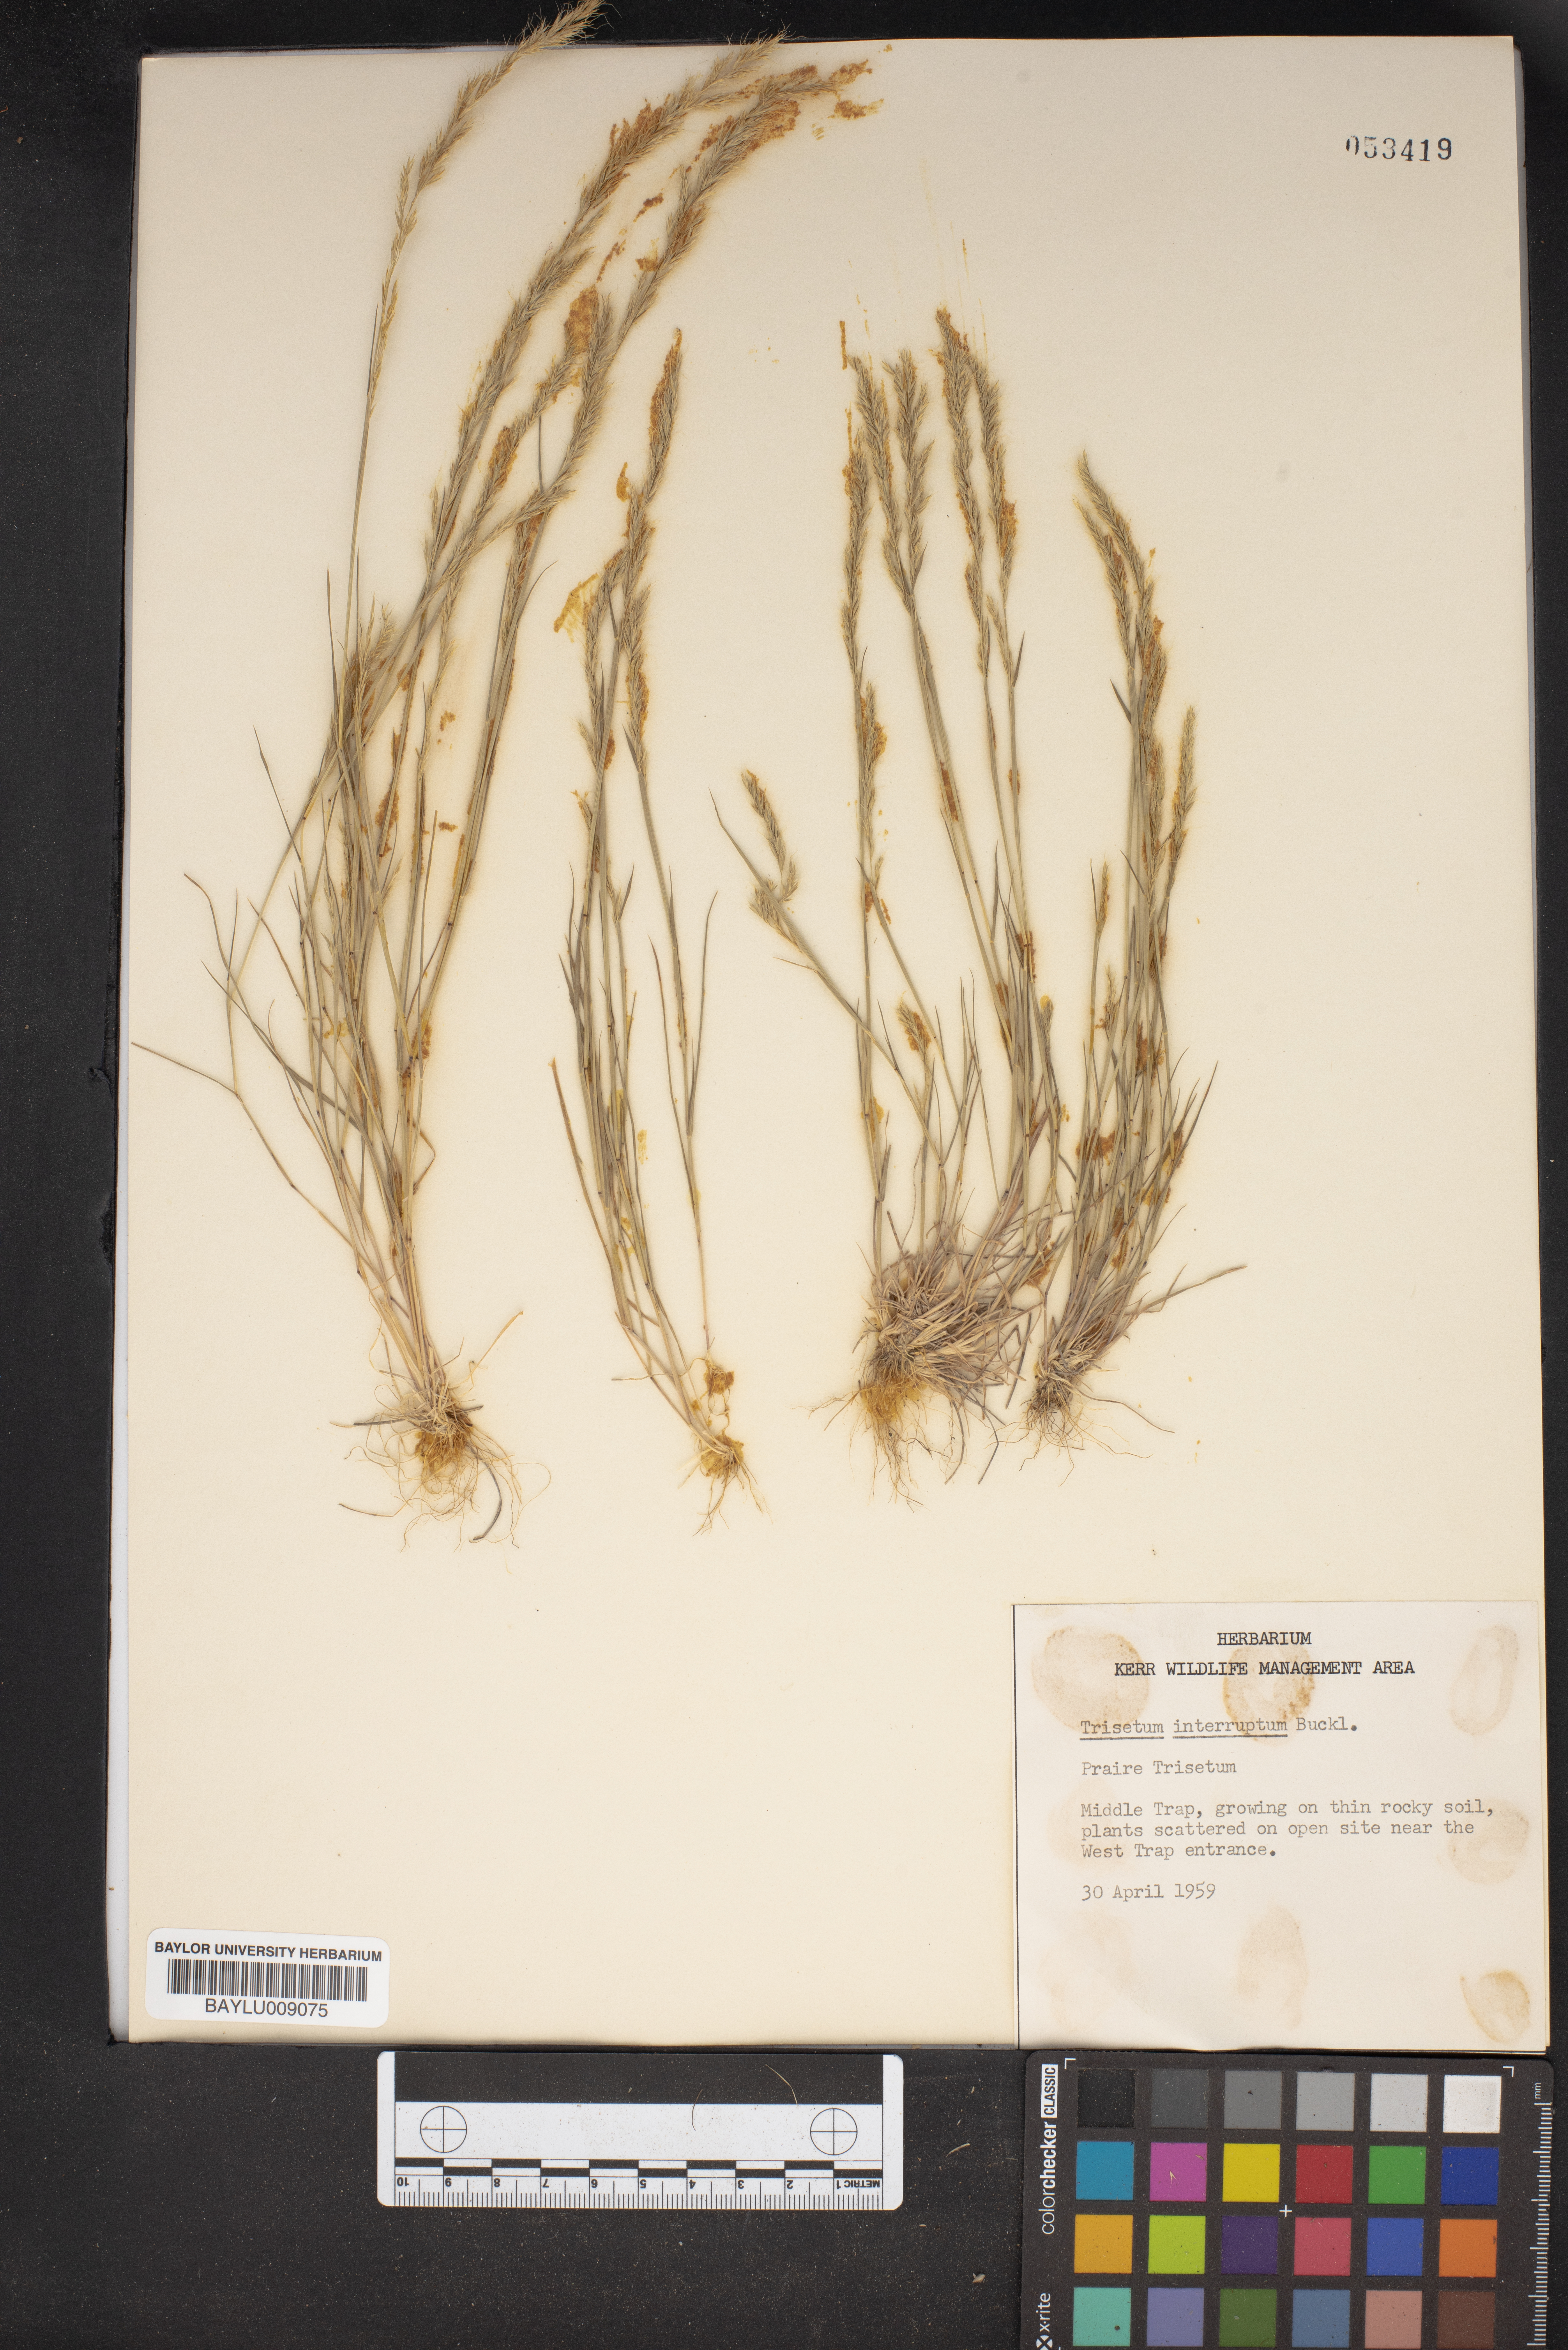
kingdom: Plantae
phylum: Tracheophyta
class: Liliopsida
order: Poales
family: Poaceae
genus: Sphenopholis
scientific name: Sphenopholis interrupta
